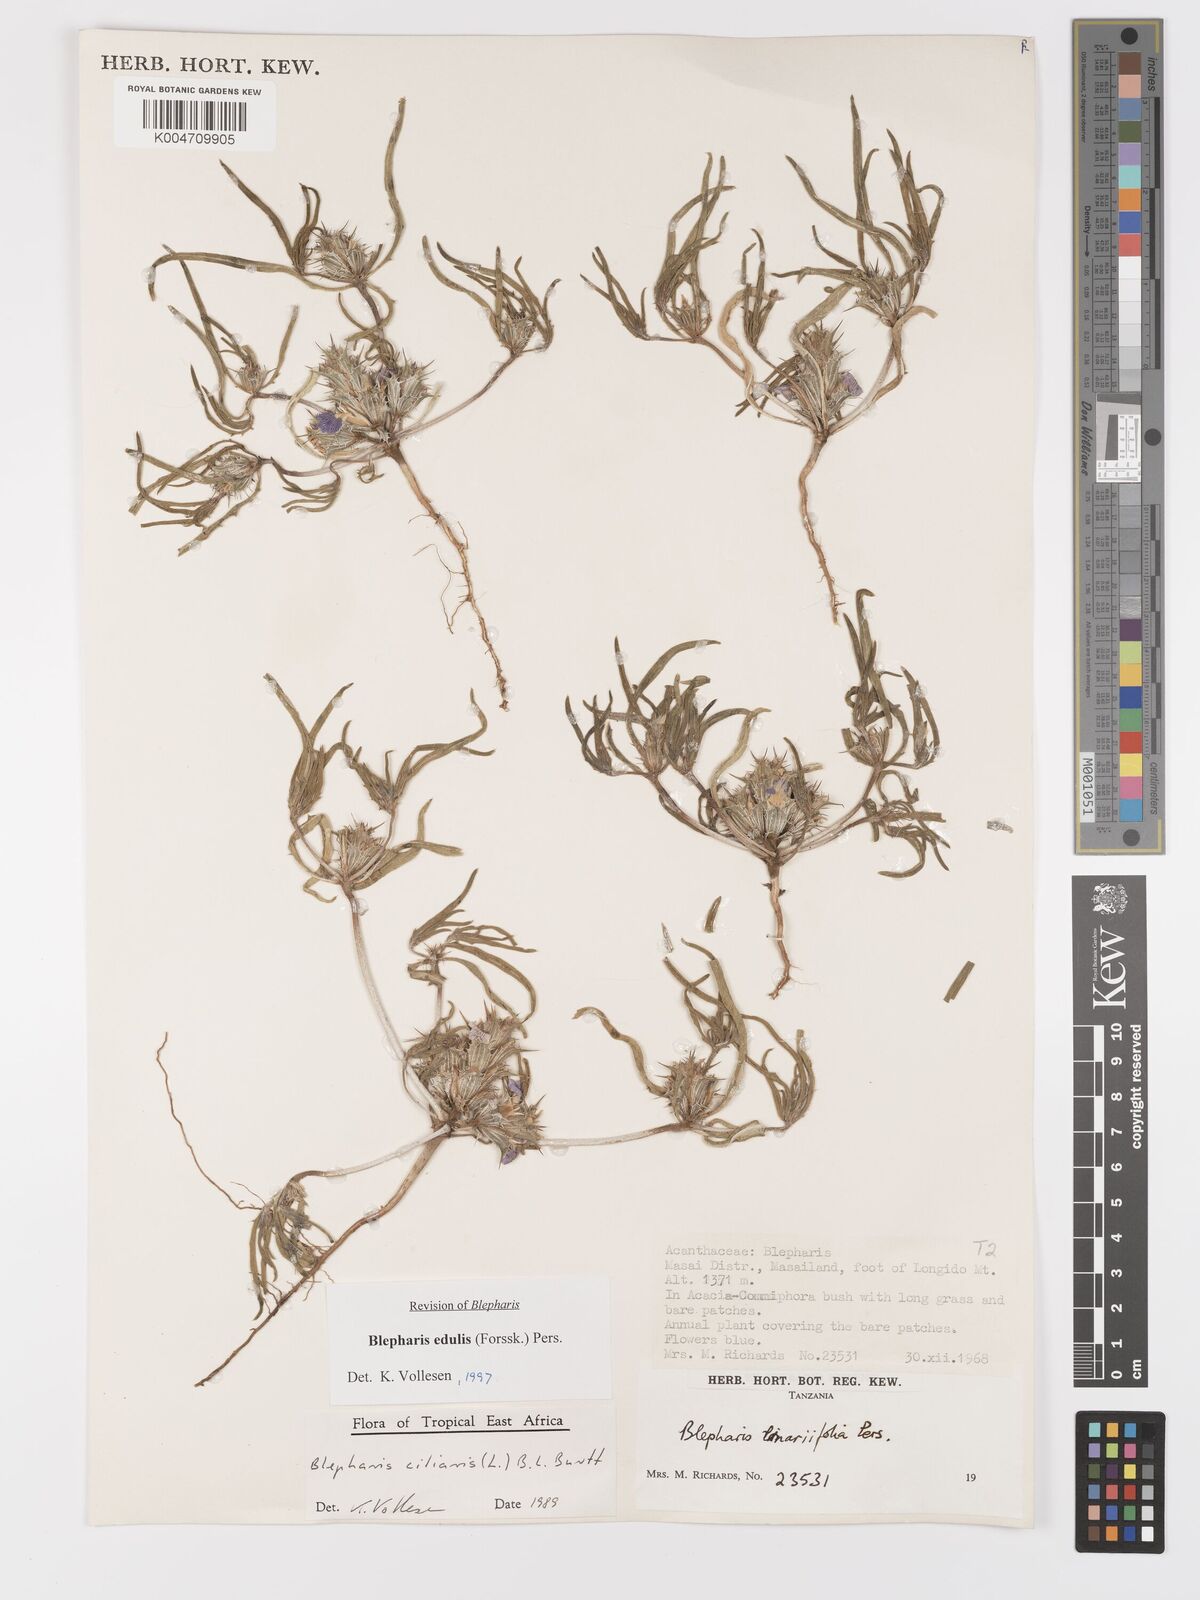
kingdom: Plantae
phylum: Tracheophyta
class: Magnoliopsida
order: Lamiales
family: Acanthaceae
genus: Blepharis
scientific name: Blepharis edulis
